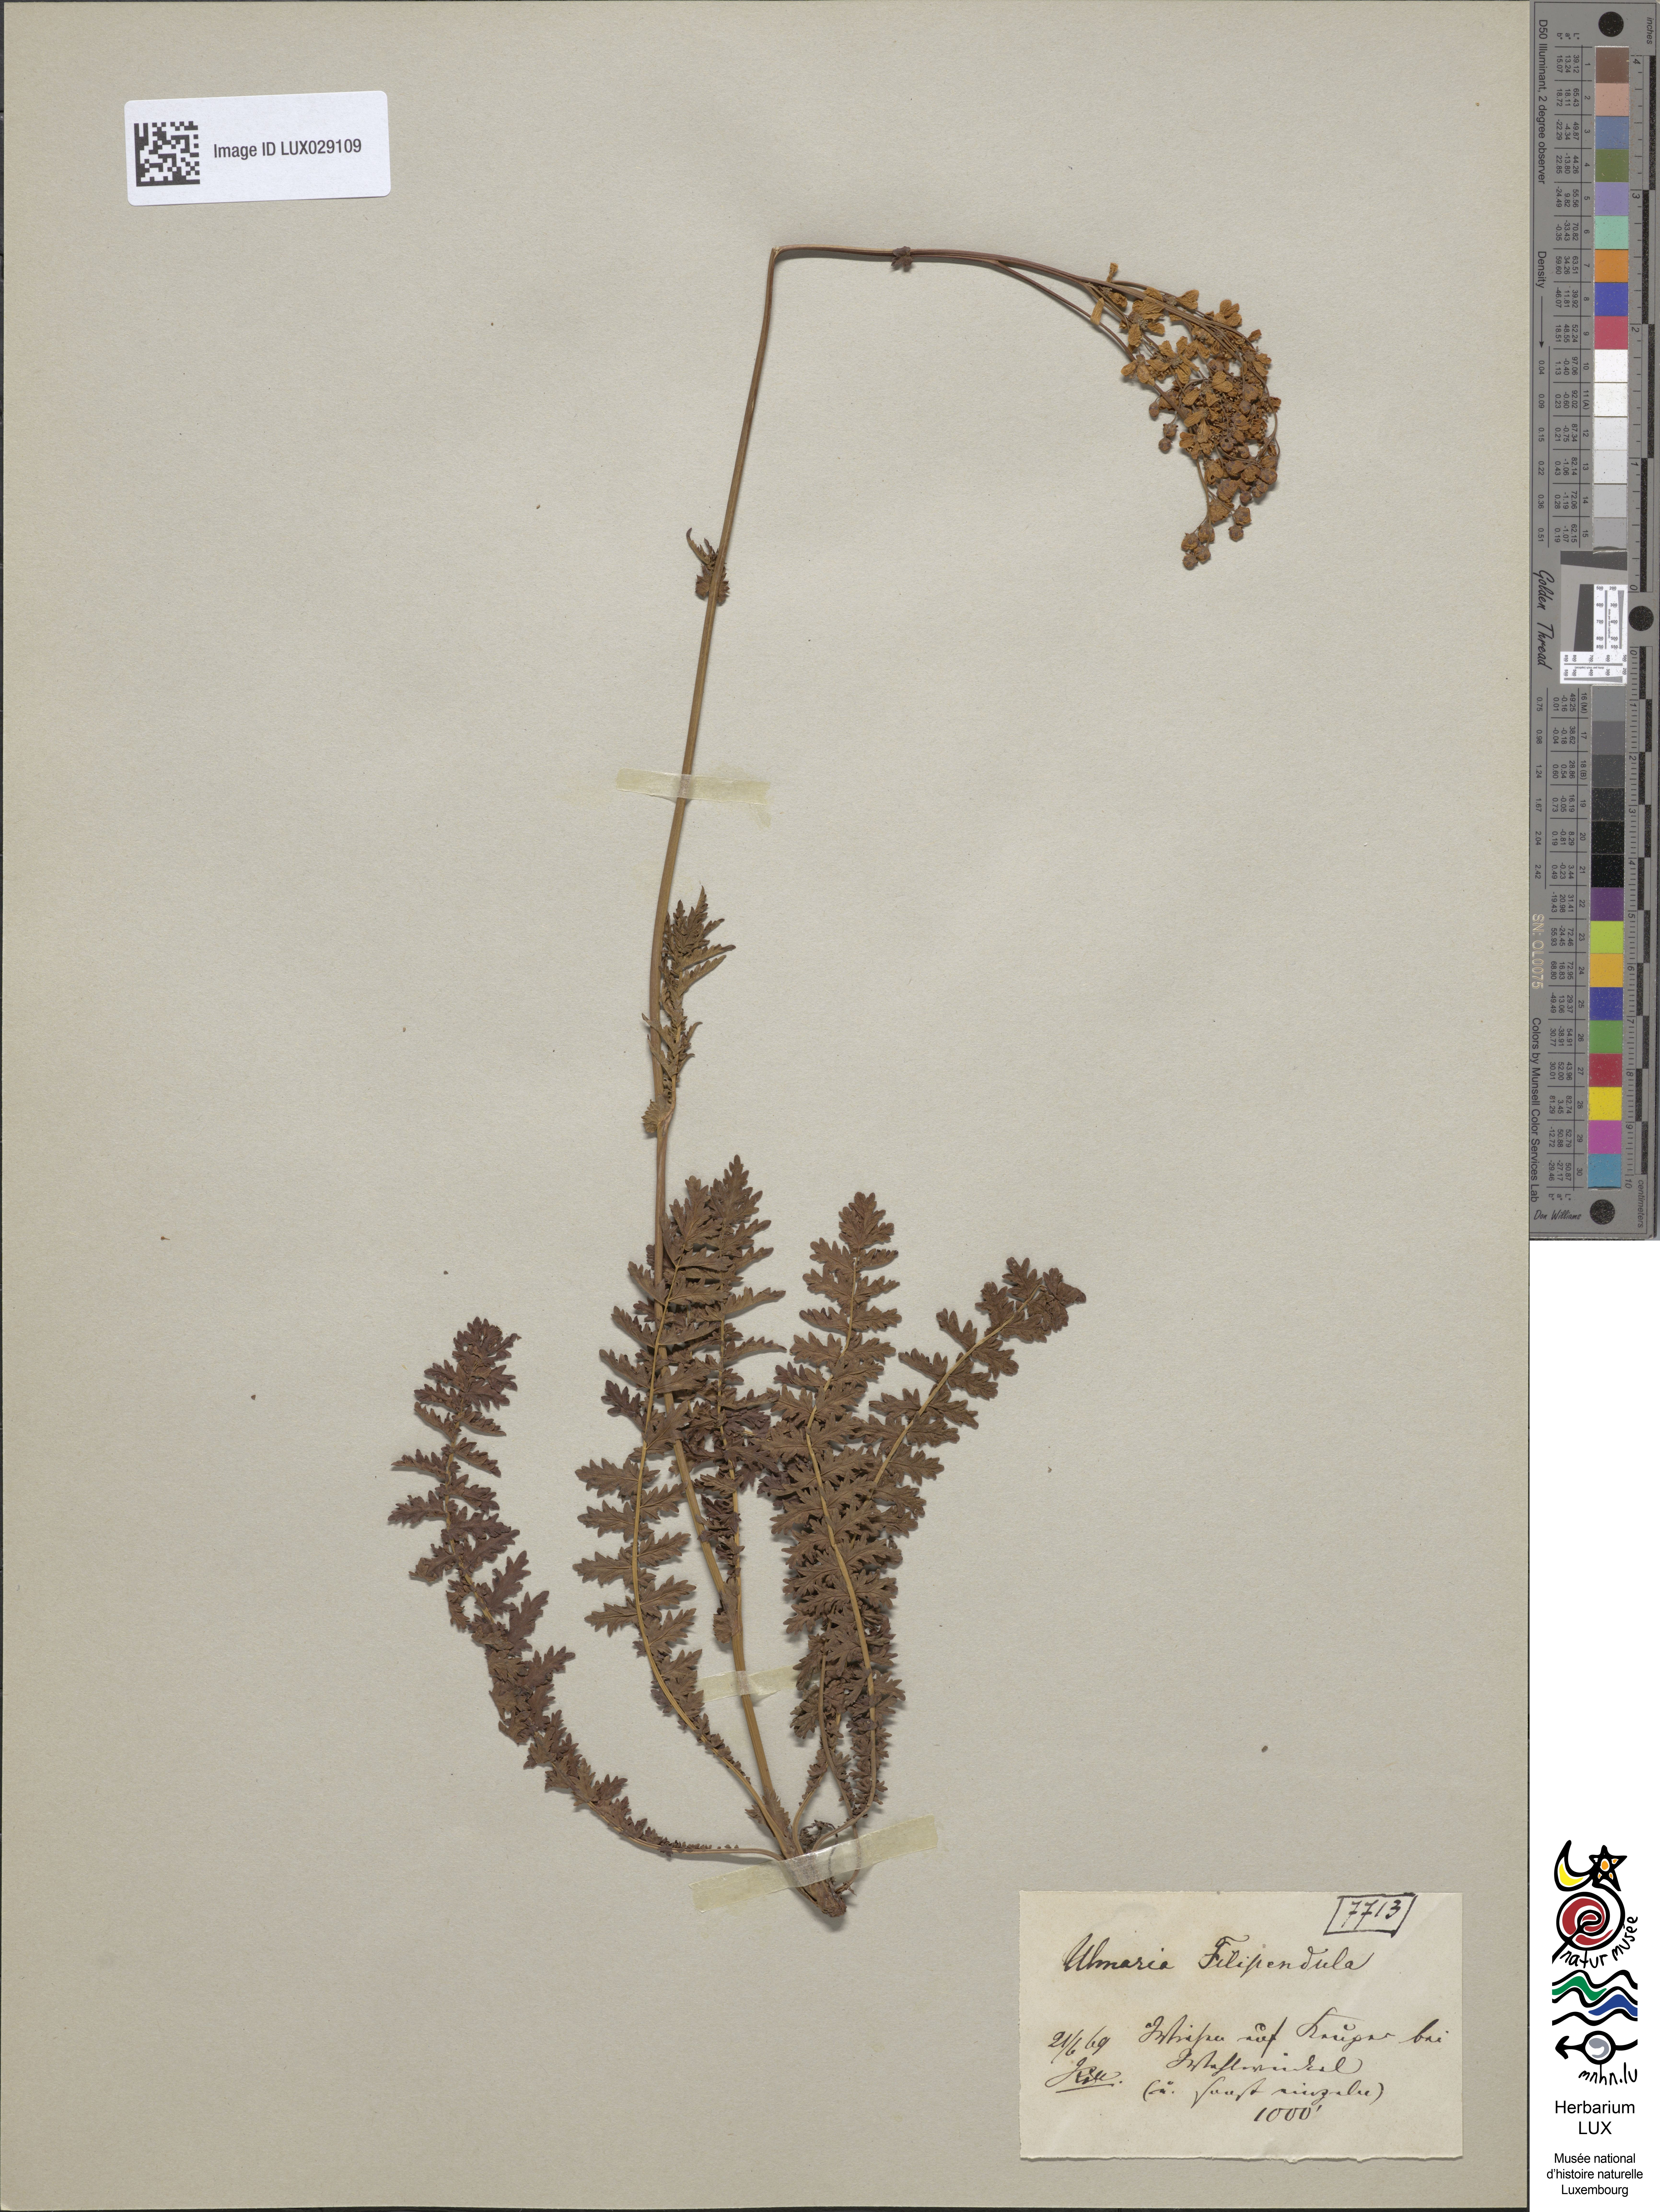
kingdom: Plantae
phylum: Tracheophyta
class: Magnoliopsida
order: Rosales
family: Rosaceae
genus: Filipendula
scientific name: Filipendula ulmaria
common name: Meadowsweet
